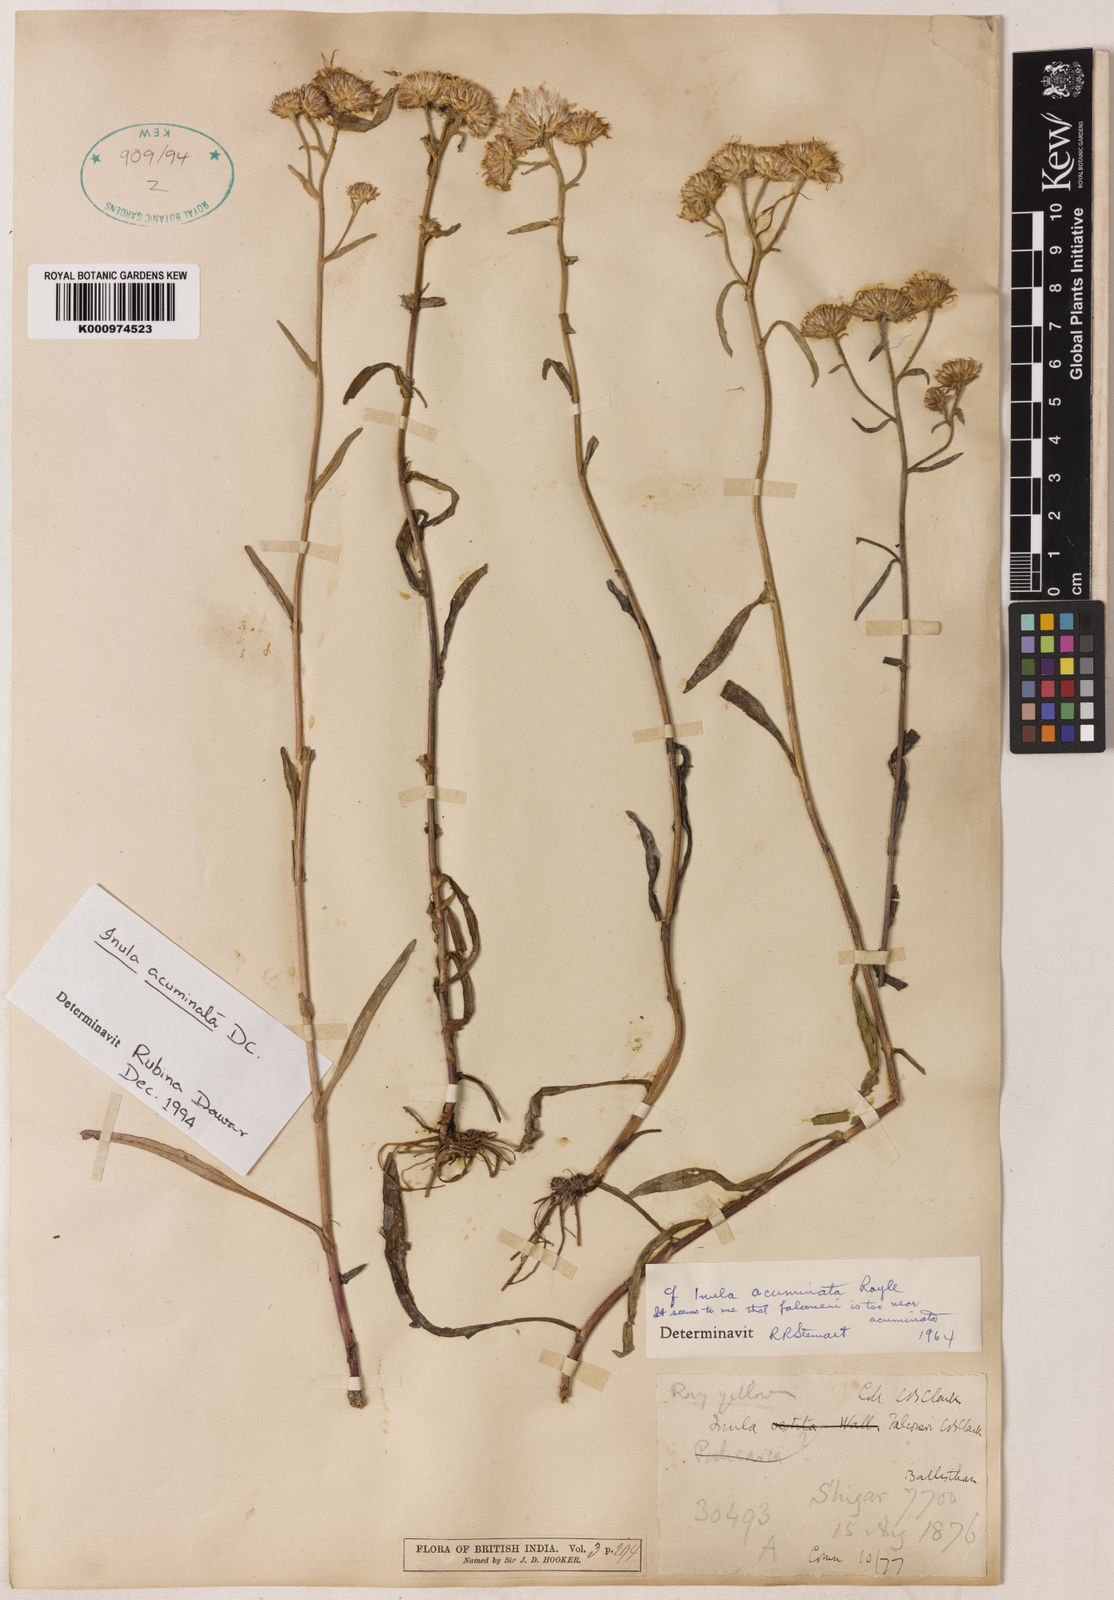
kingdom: Plantae
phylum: Tracheophyta
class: Magnoliopsida
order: Asterales
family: Asteraceae
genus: Inula
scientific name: Inula acuminata
